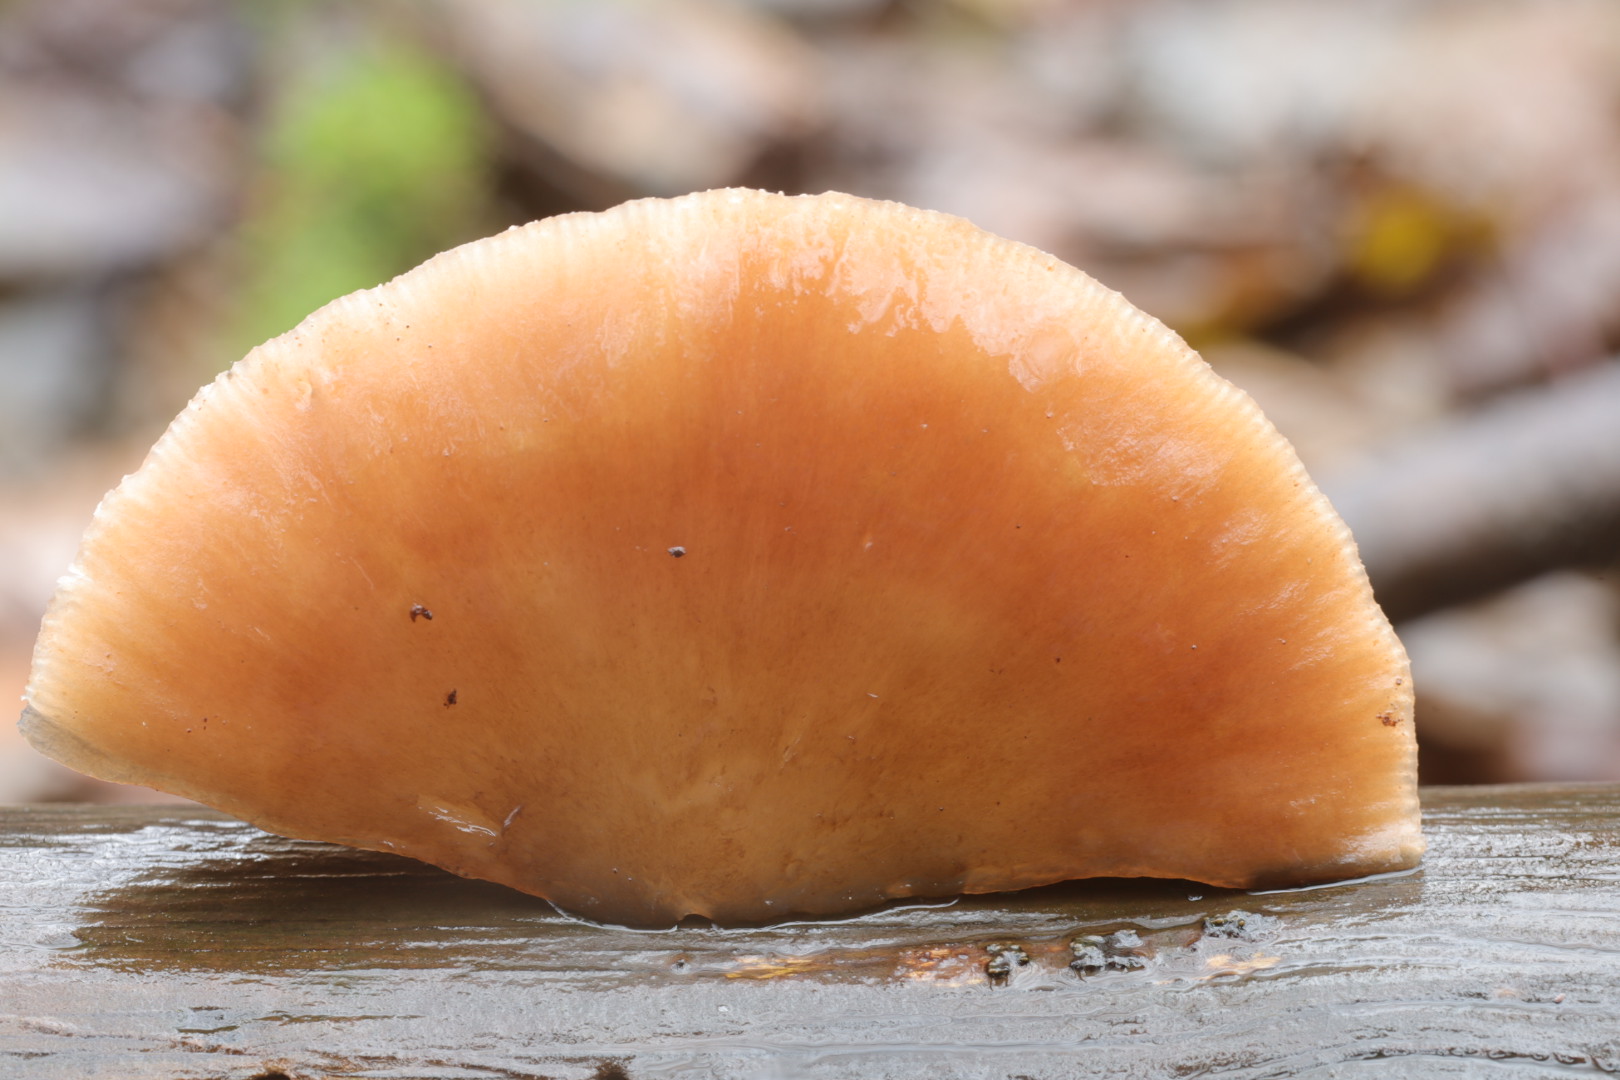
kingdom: Fungi
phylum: Basidiomycota
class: Agaricomycetes
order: Agaricales
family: Pluteaceae
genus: Pluteus
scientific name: Pluteus cervinus
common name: sodfarvet skærmhat
